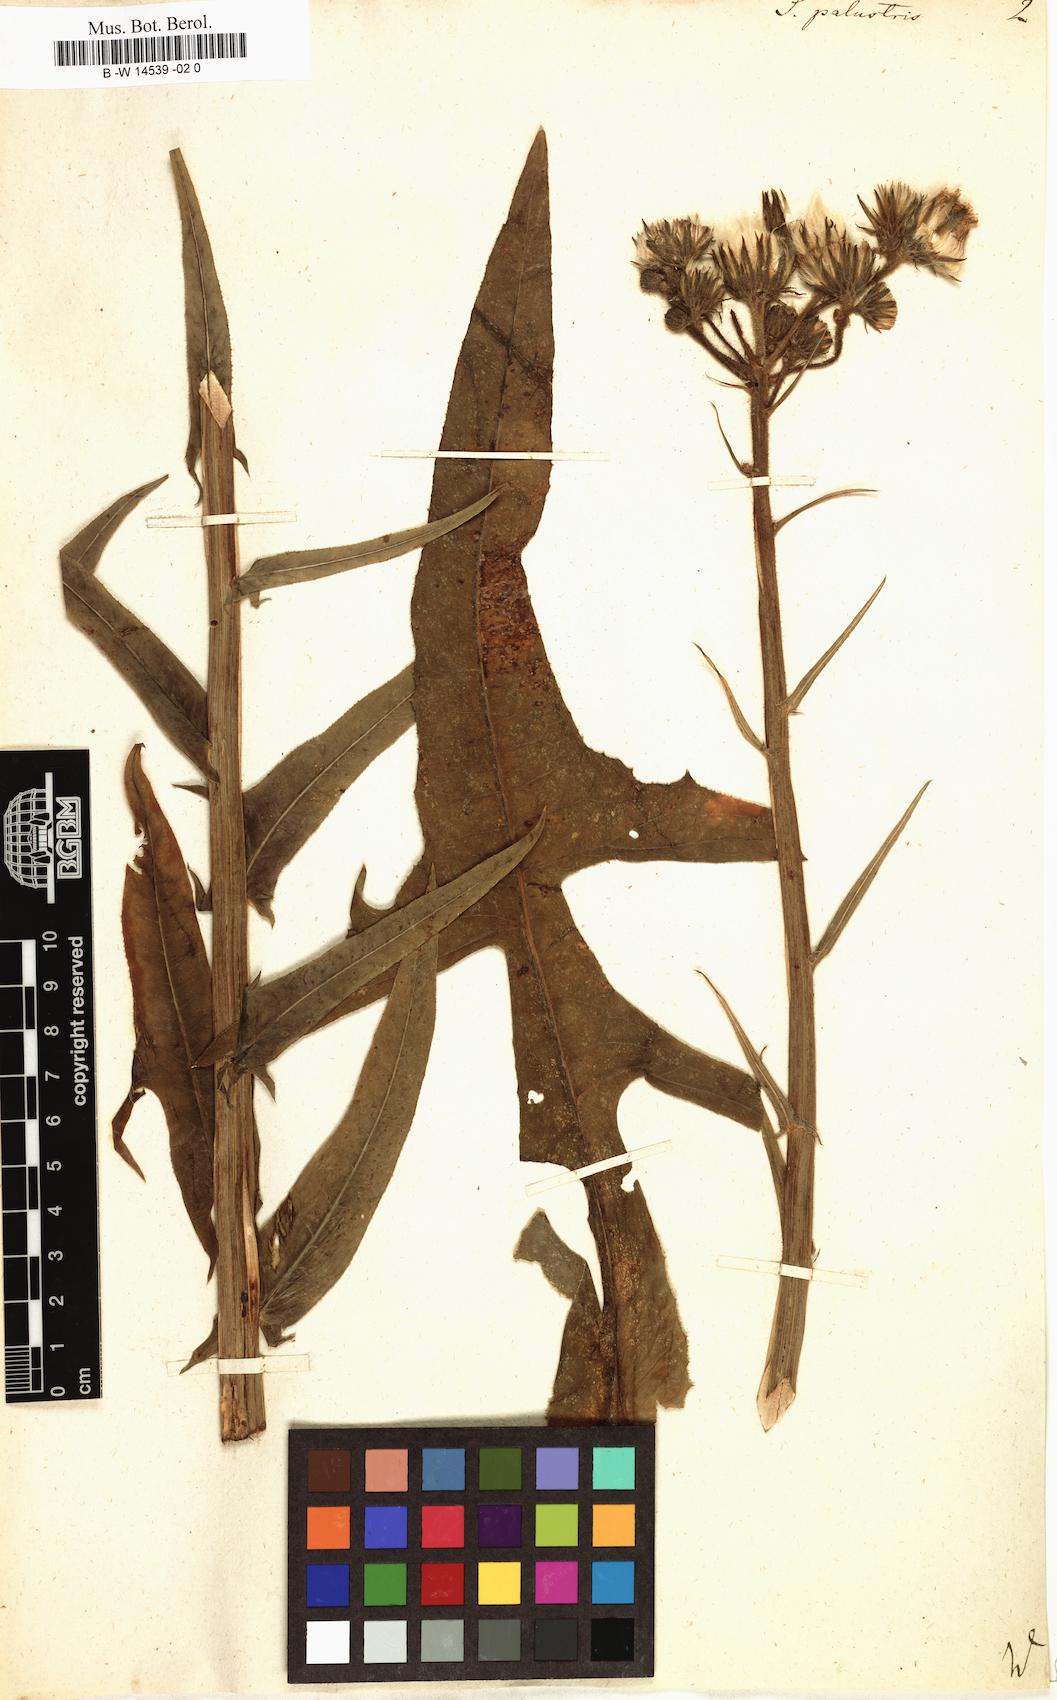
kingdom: Plantae
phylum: Tracheophyta
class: Magnoliopsida
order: Asterales
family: Asteraceae
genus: Sonchus
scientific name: Sonchus palustris
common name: Marsh sow-thistle
